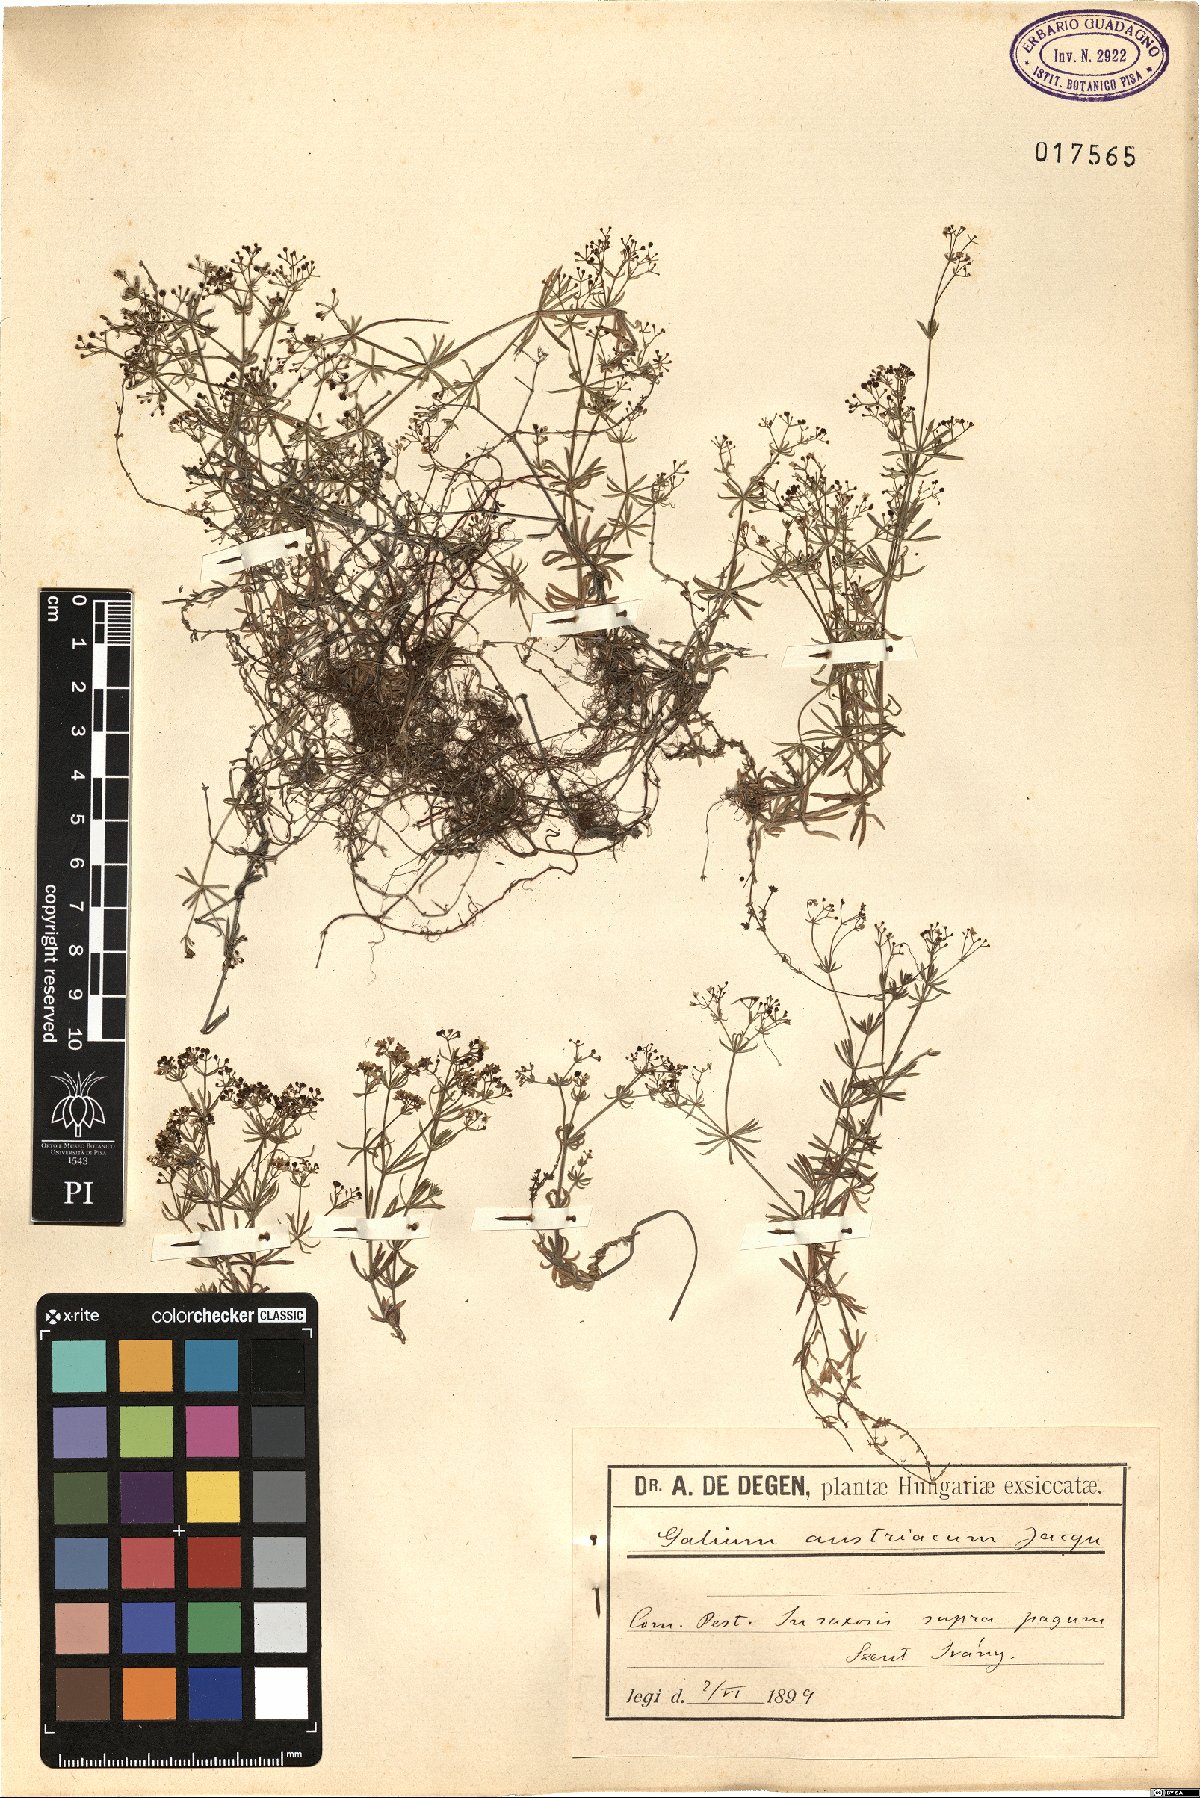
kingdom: Plantae
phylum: Tracheophyta
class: Magnoliopsida
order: Gentianales
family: Rubiaceae
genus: Galium
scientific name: Galium austriacum
